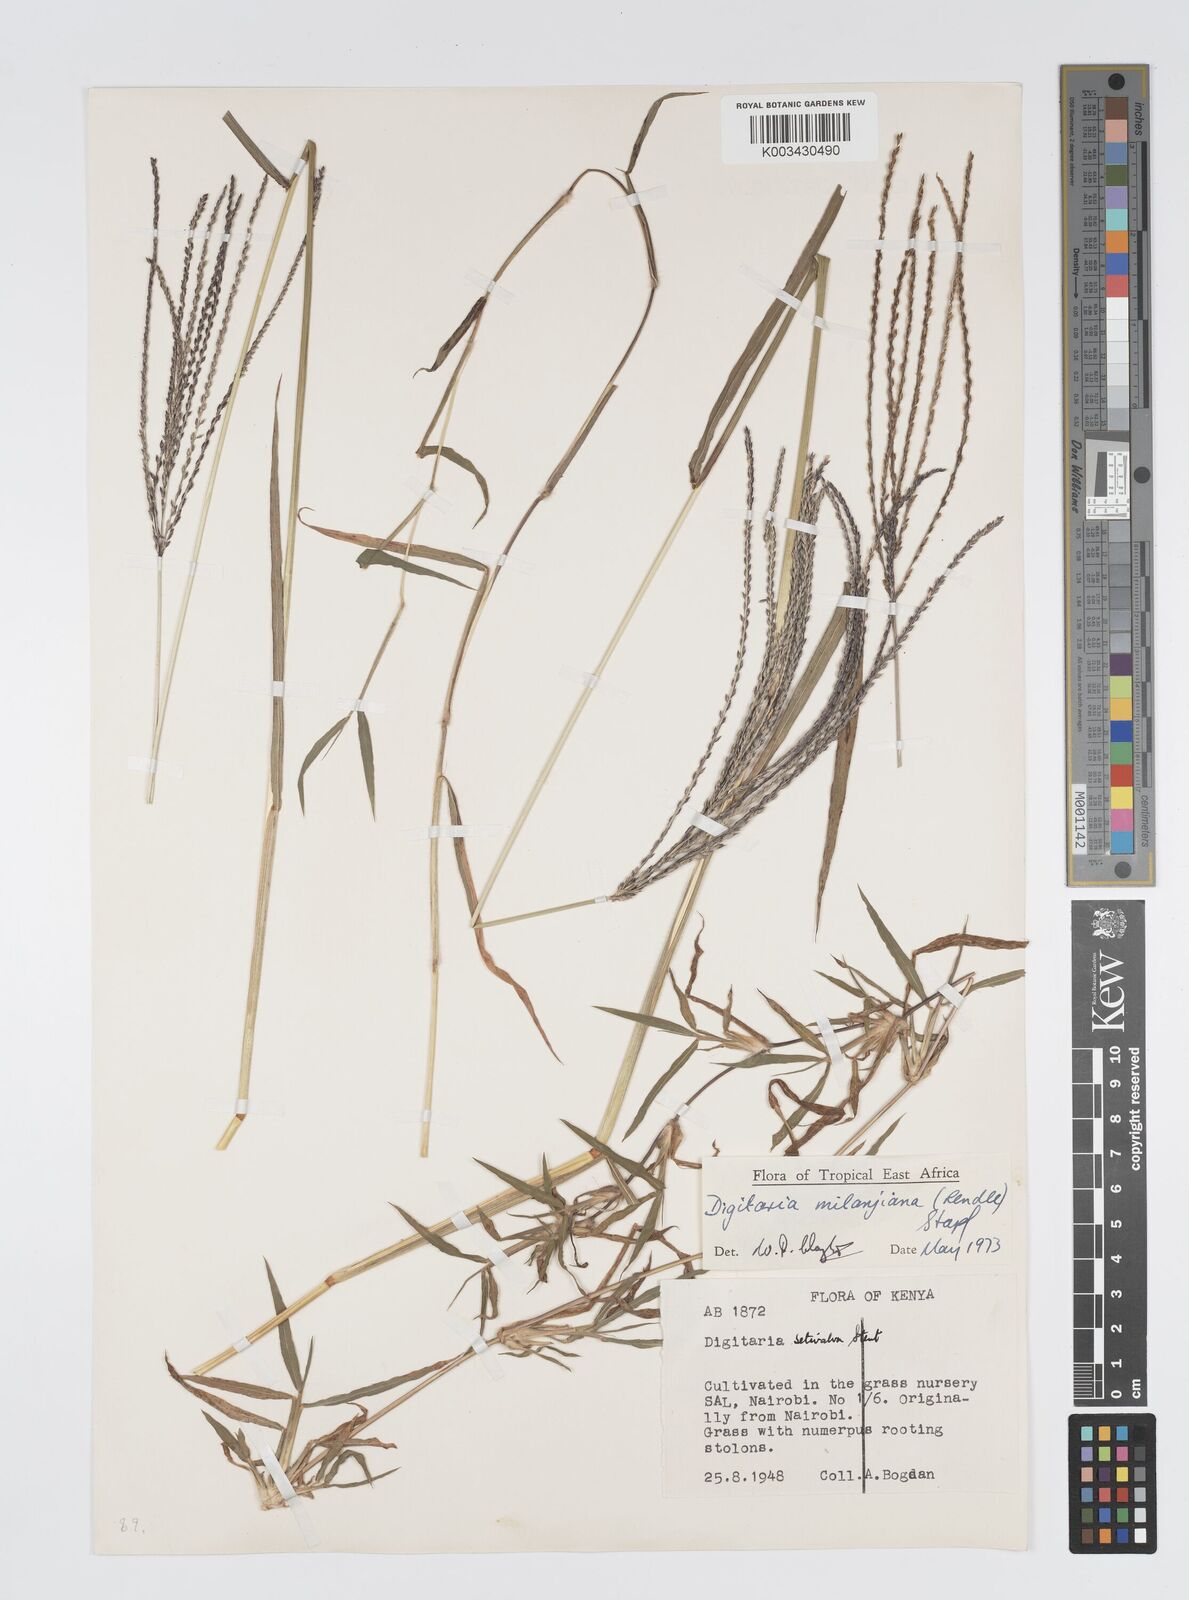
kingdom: Plantae
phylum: Tracheophyta
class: Liliopsida
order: Poales
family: Poaceae
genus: Digitaria
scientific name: Digitaria milanjiana
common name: Madagascar crabgrass
